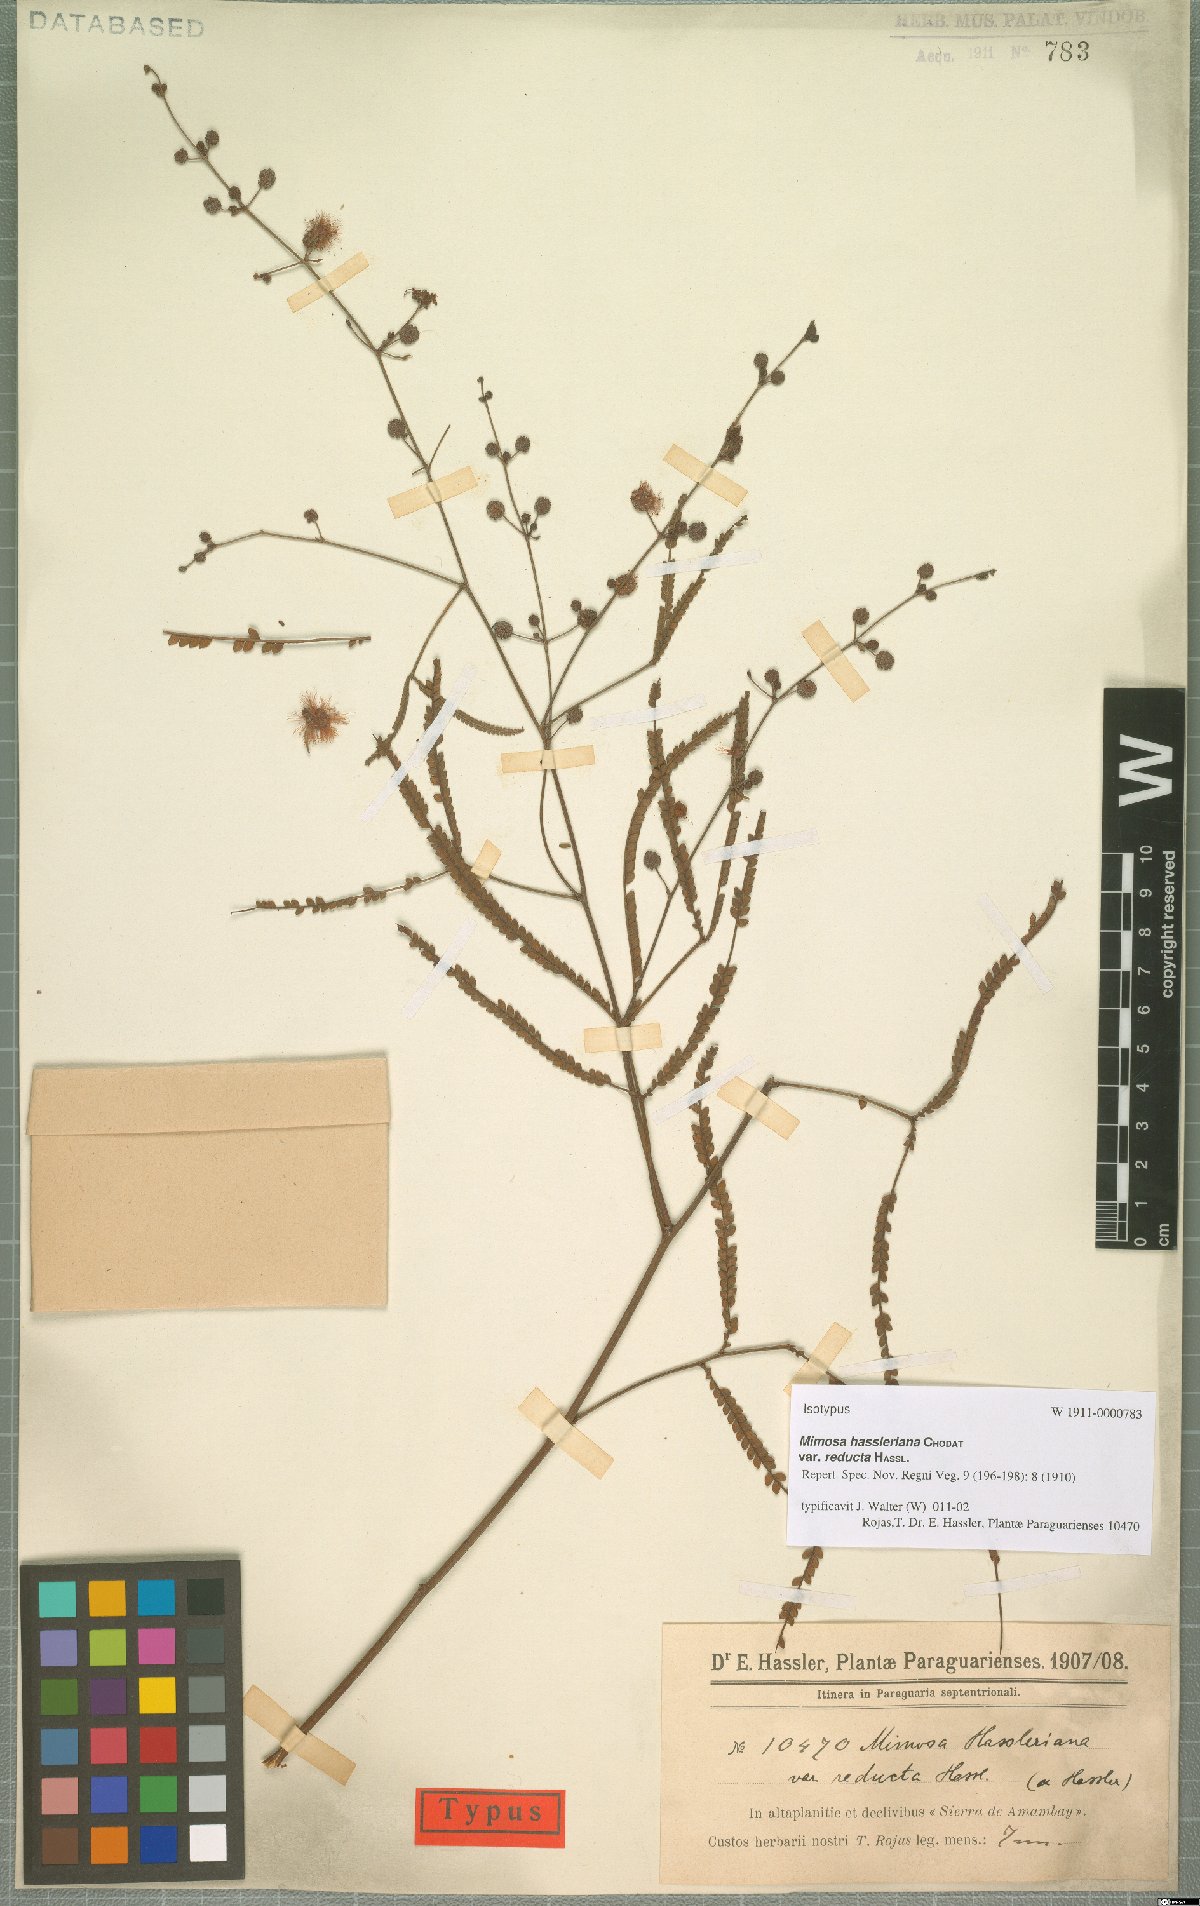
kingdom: Plantae
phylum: Tracheophyta
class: Magnoliopsida
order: Fabales
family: Fabaceae
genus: Mimosa
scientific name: Mimosa bifurca
